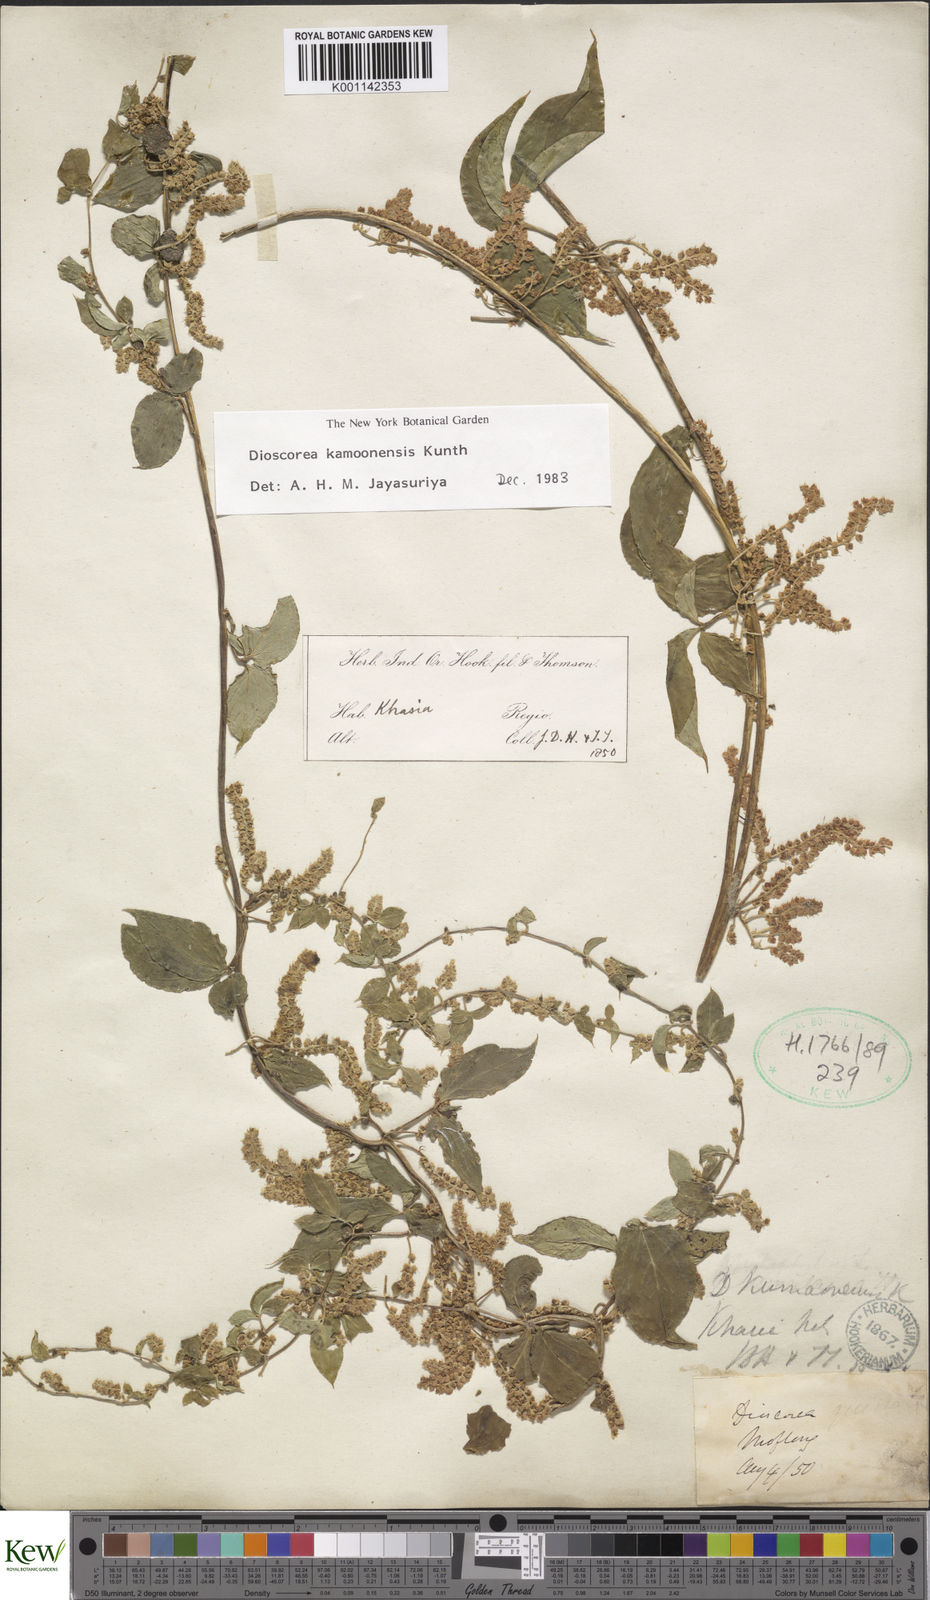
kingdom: Plantae
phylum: Tracheophyta
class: Liliopsida
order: Dioscoreales
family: Dioscoreaceae
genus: Dioscorea
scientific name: Dioscorea kamoonensis
